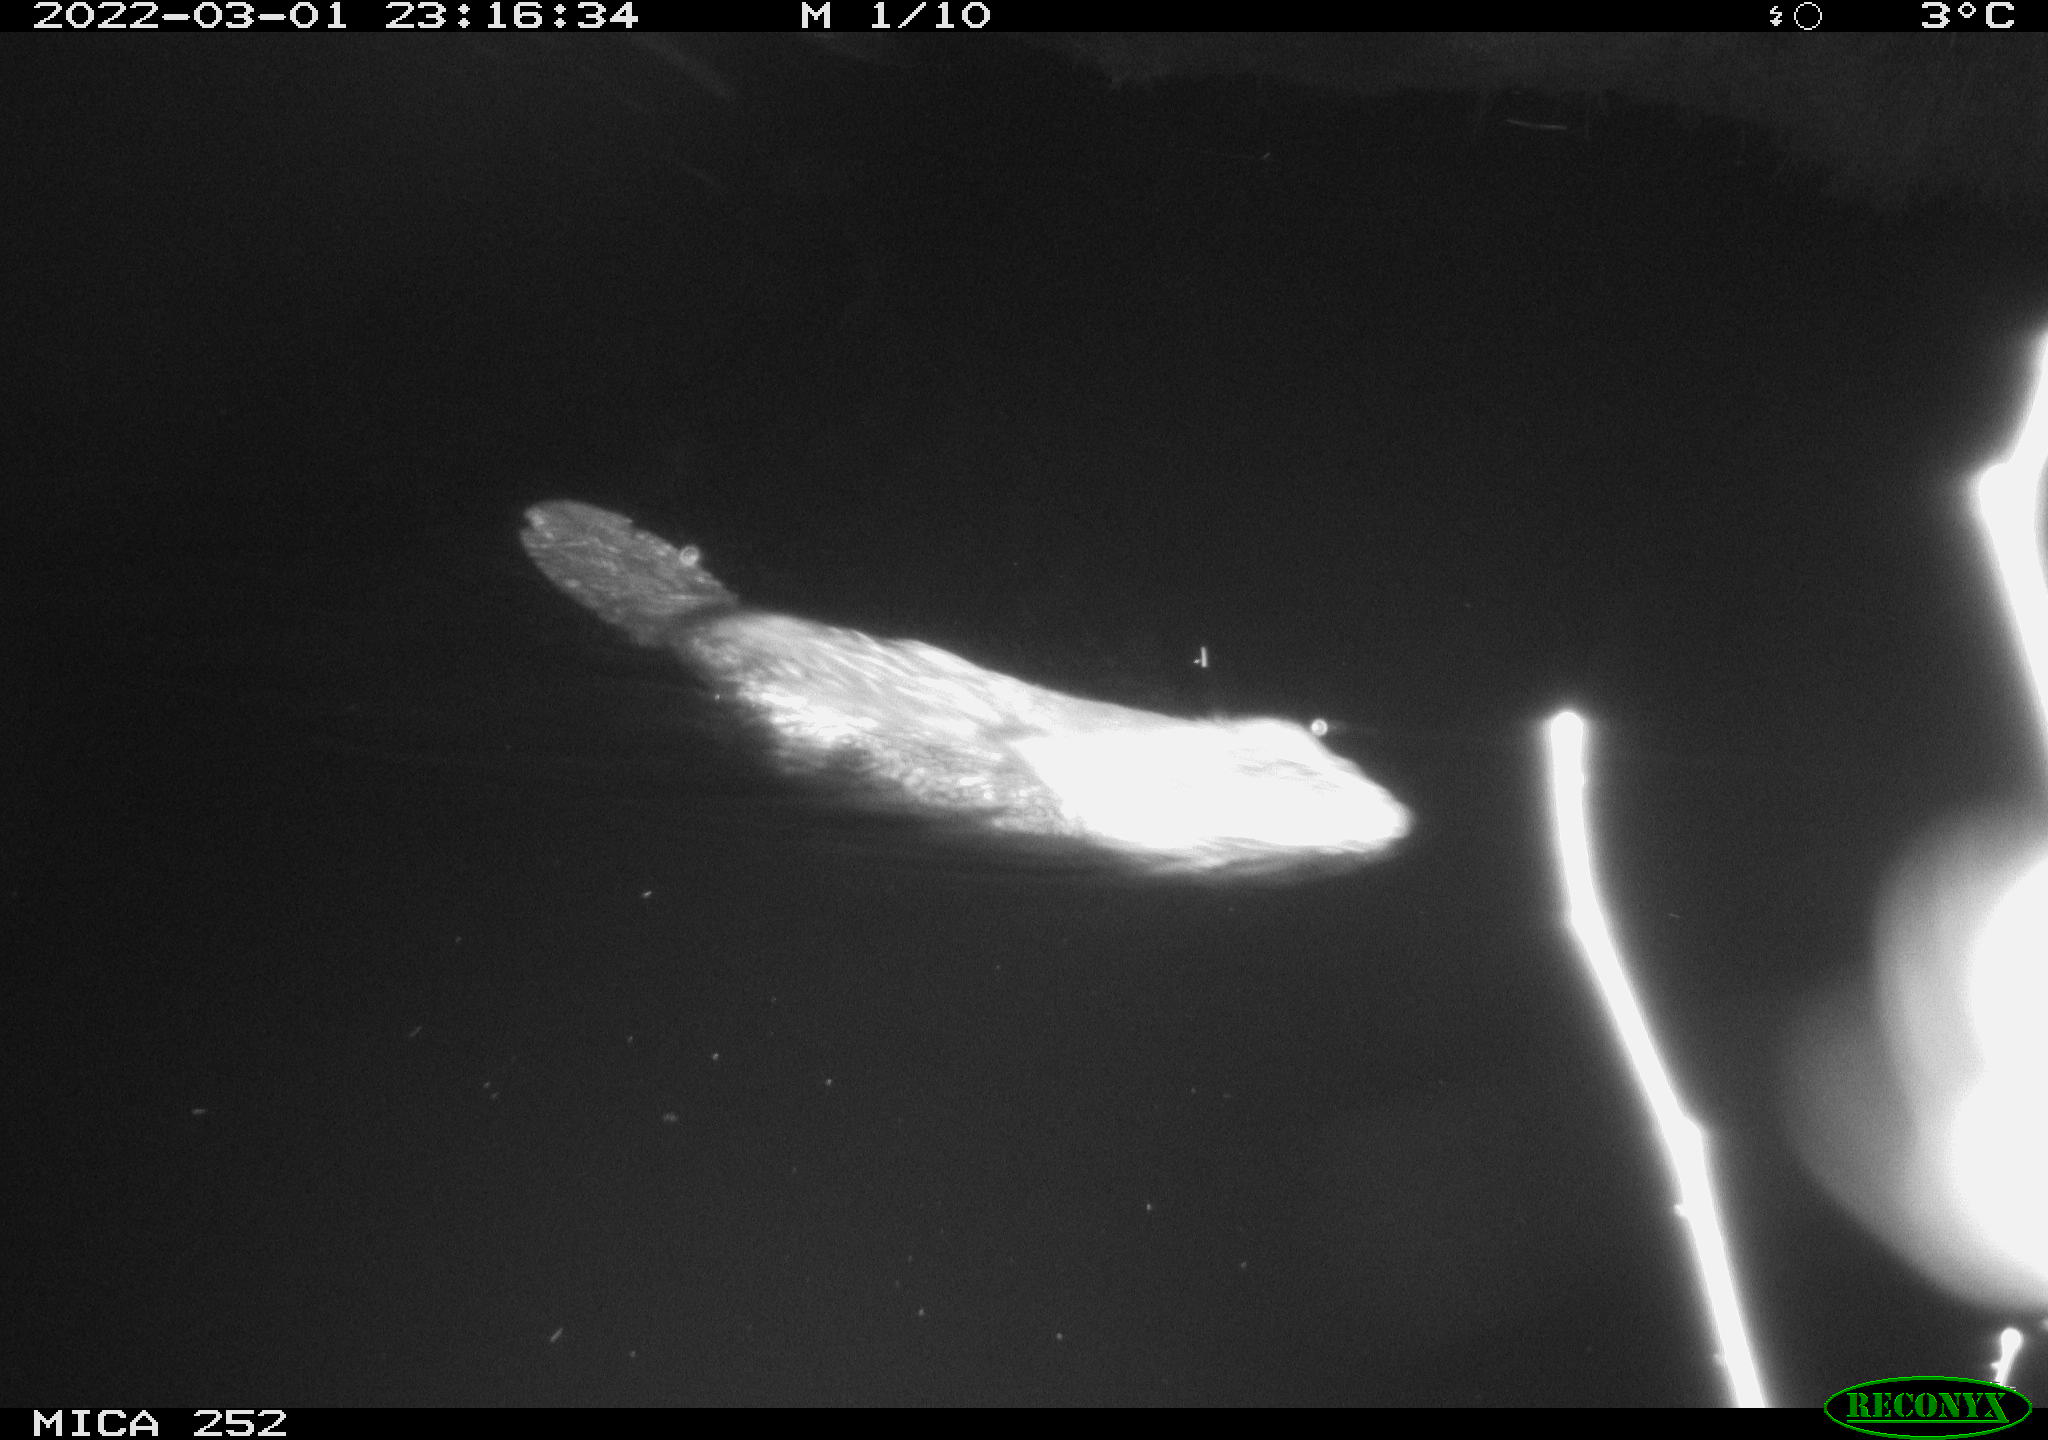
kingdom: Animalia
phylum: Chordata
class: Mammalia
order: Rodentia
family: Castoridae
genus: Castor
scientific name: Castor fiber
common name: Eurasian beaver
